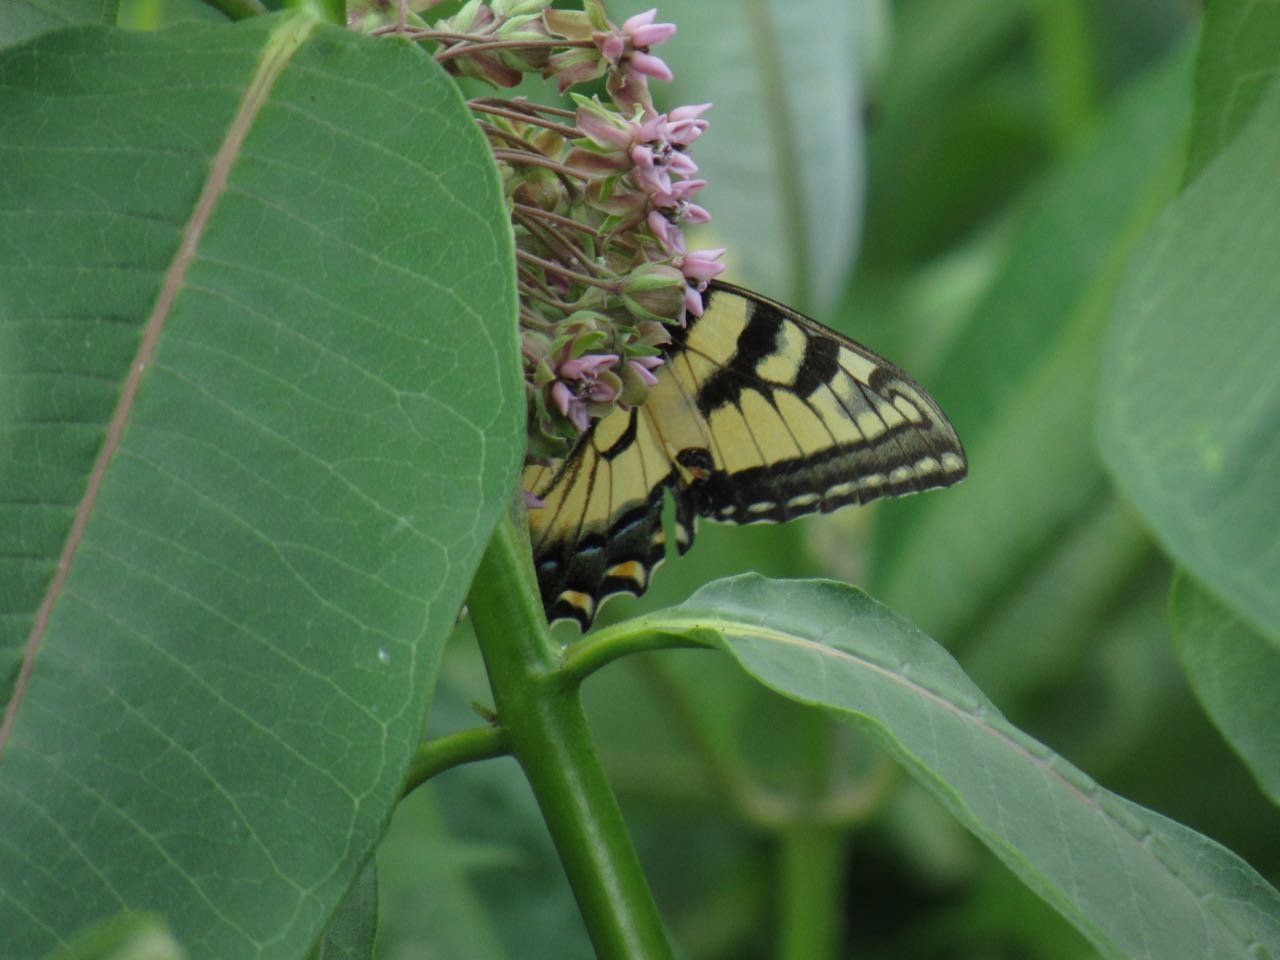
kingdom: Animalia
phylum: Arthropoda
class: Insecta
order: Lepidoptera
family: Papilionidae
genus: Pterourus
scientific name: Pterourus
